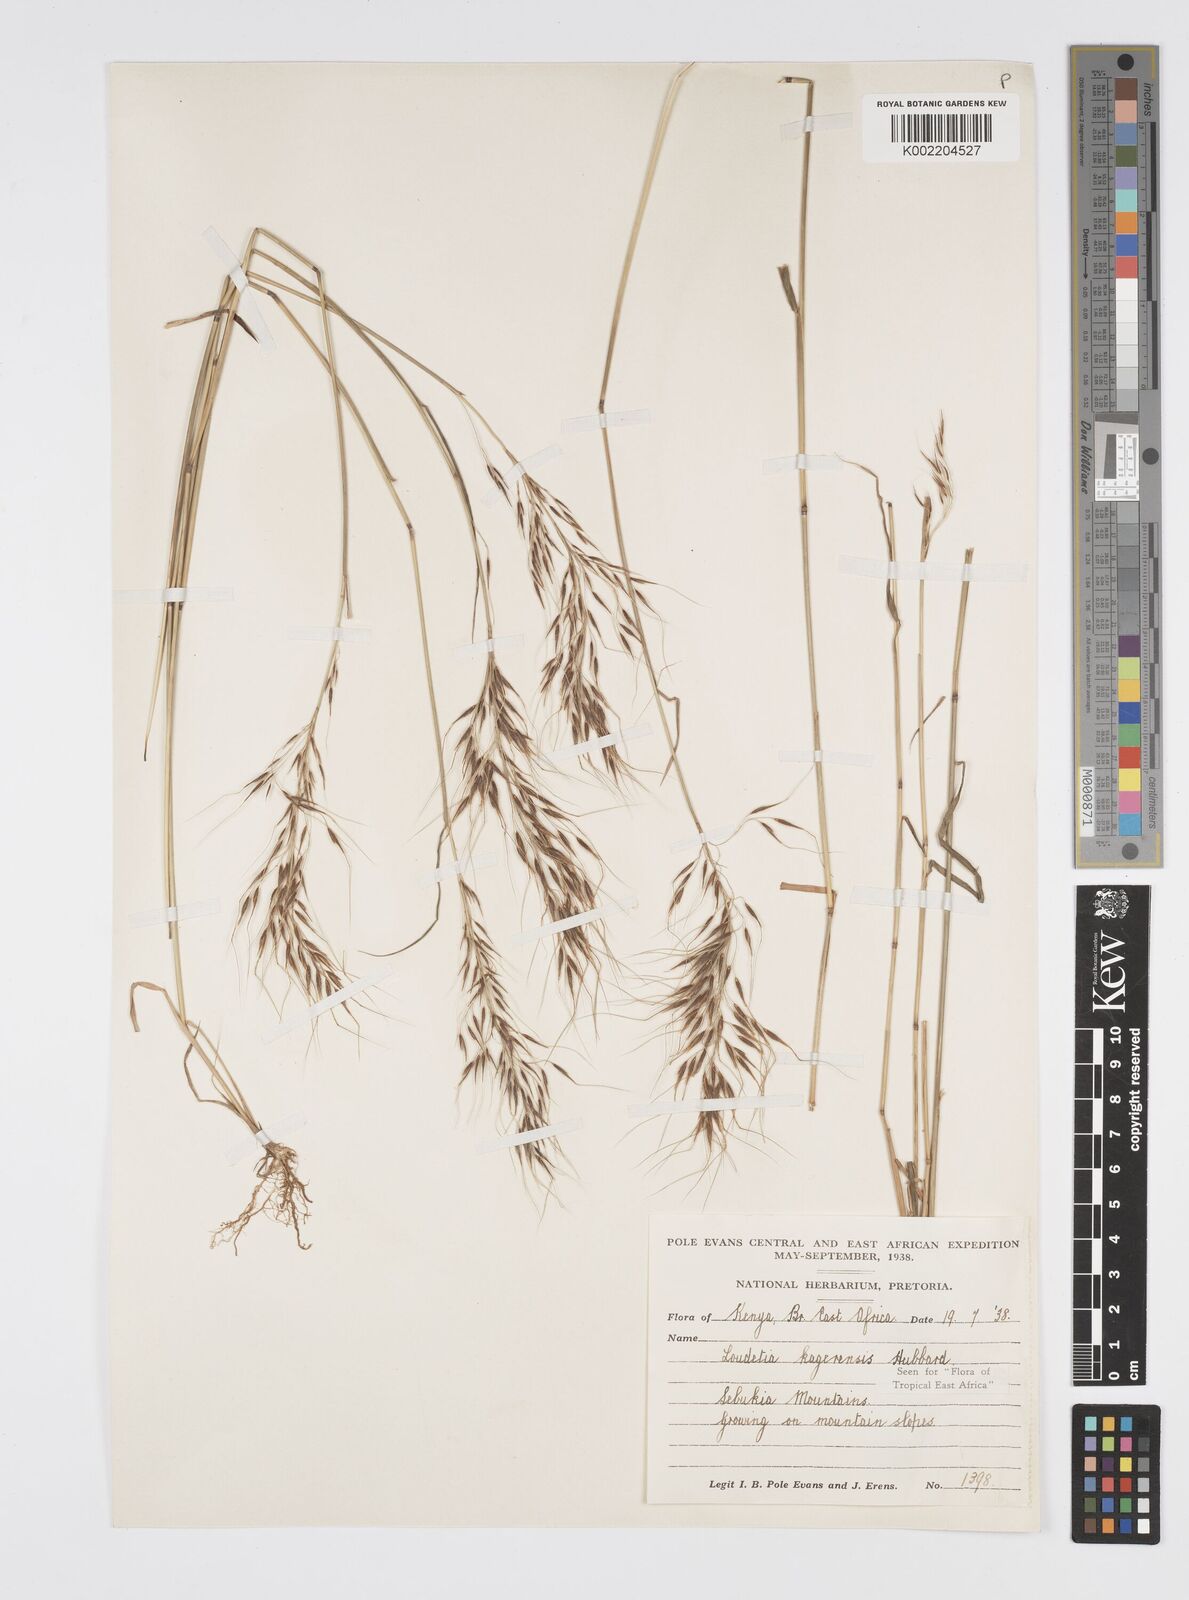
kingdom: Plantae
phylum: Tracheophyta
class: Liliopsida
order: Poales
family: Poaceae
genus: Loudetia
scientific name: Loudetia kagerensis
